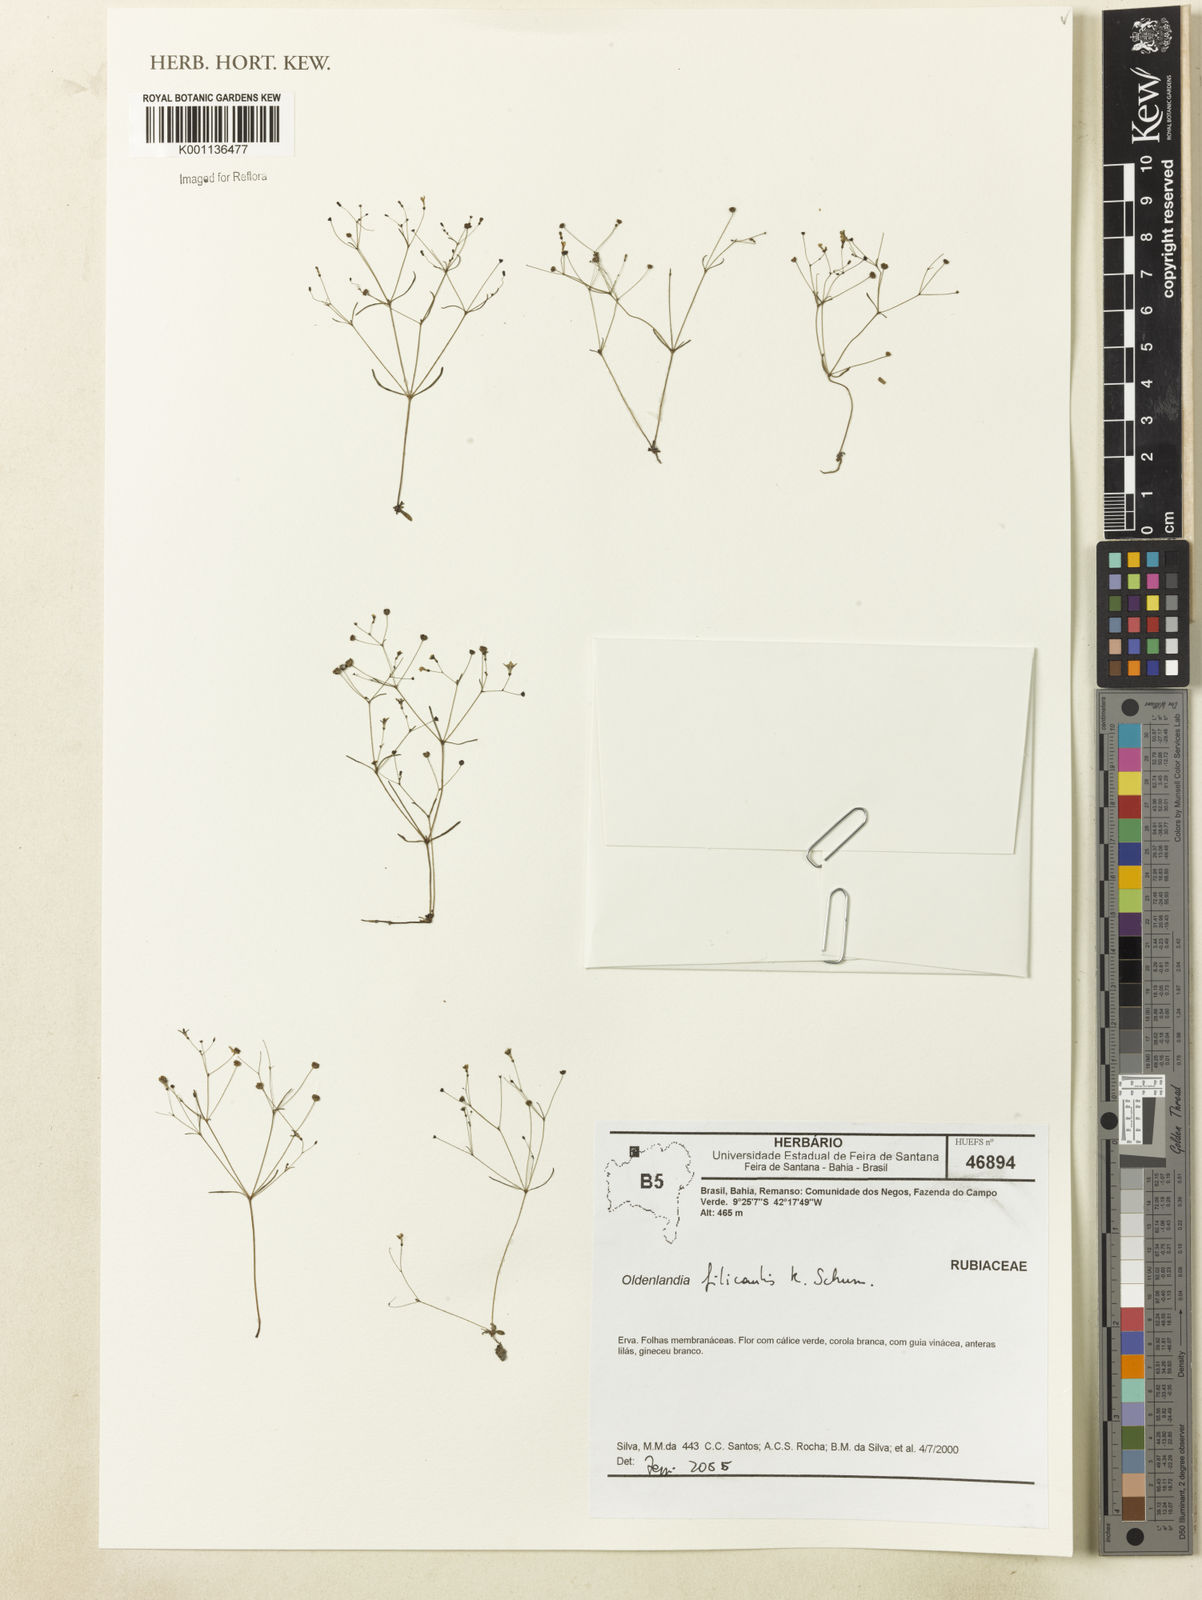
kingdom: Plantae
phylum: Tracheophyta
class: Magnoliopsida
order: Gentianales
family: Rubiaceae
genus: Oldenlandia
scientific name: Oldenlandia filicaulis
